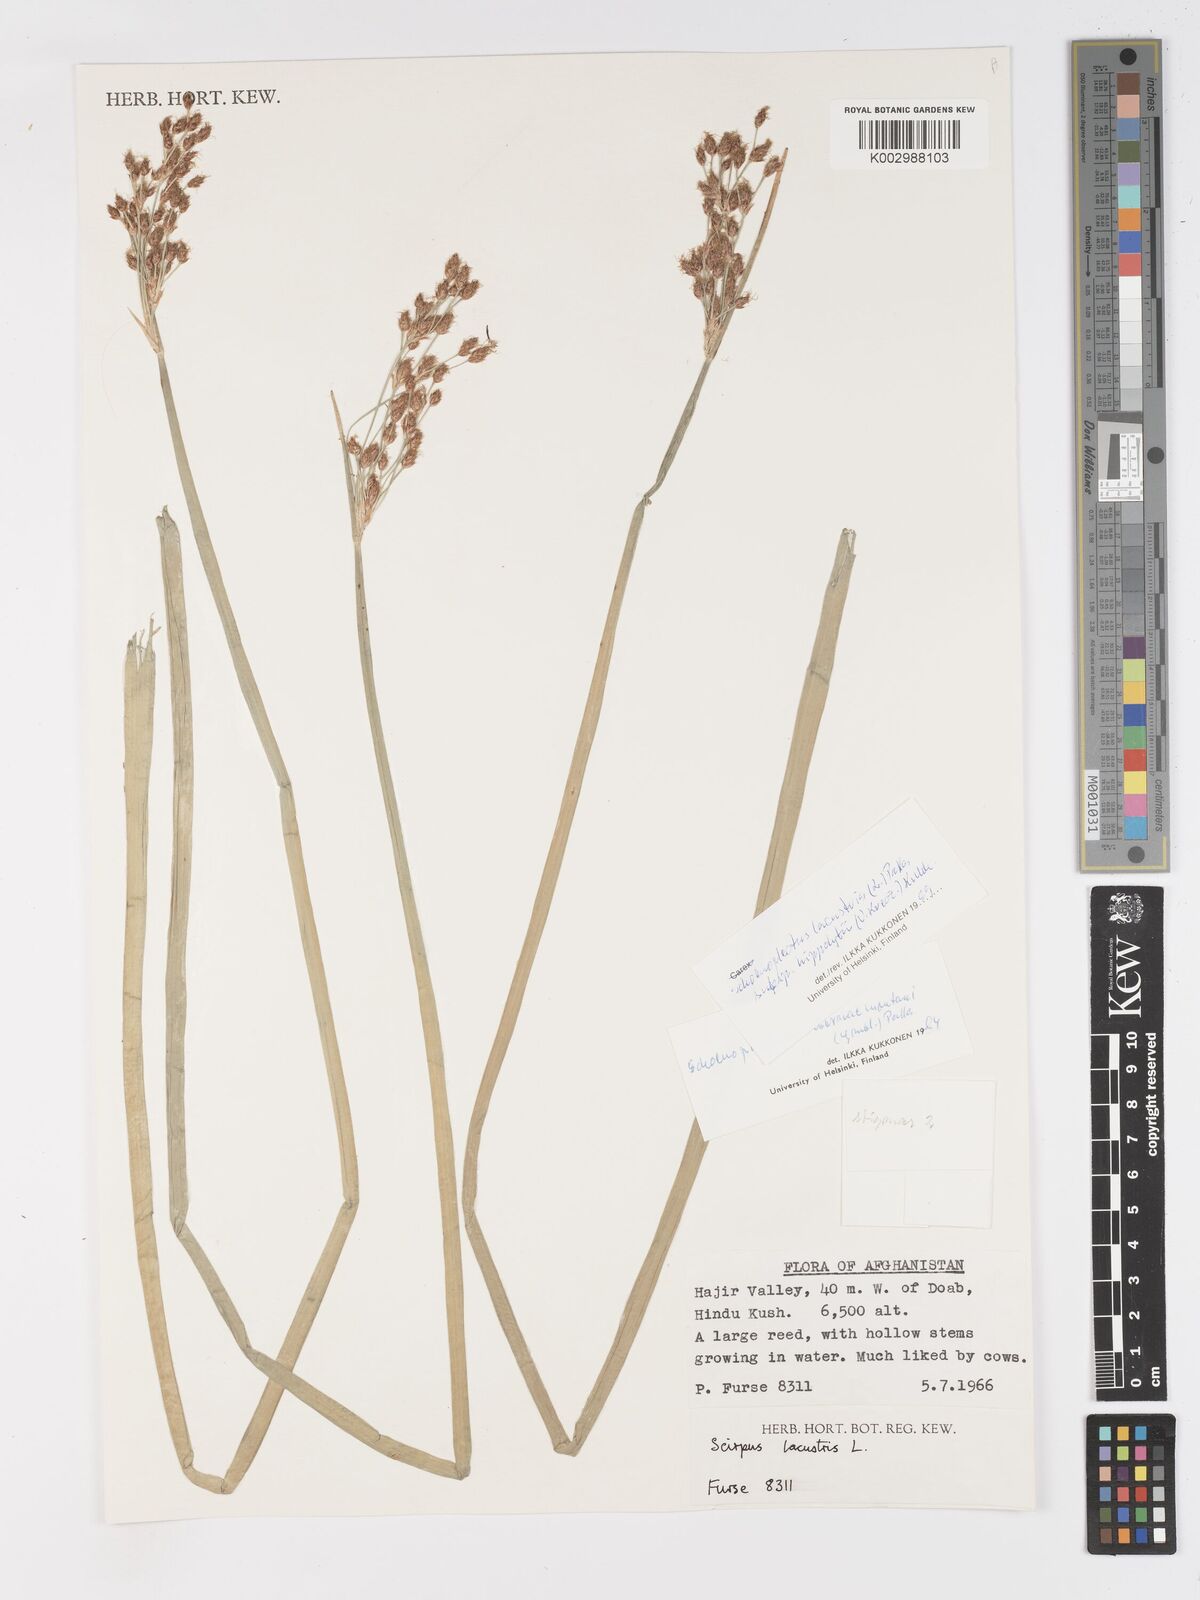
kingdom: Plantae
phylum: Tracheophyta
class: Liliopsida
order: Poales
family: Cyperaceae
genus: Schoenoplectus
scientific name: Schoenoplectus lacustris
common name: Common club-rush
